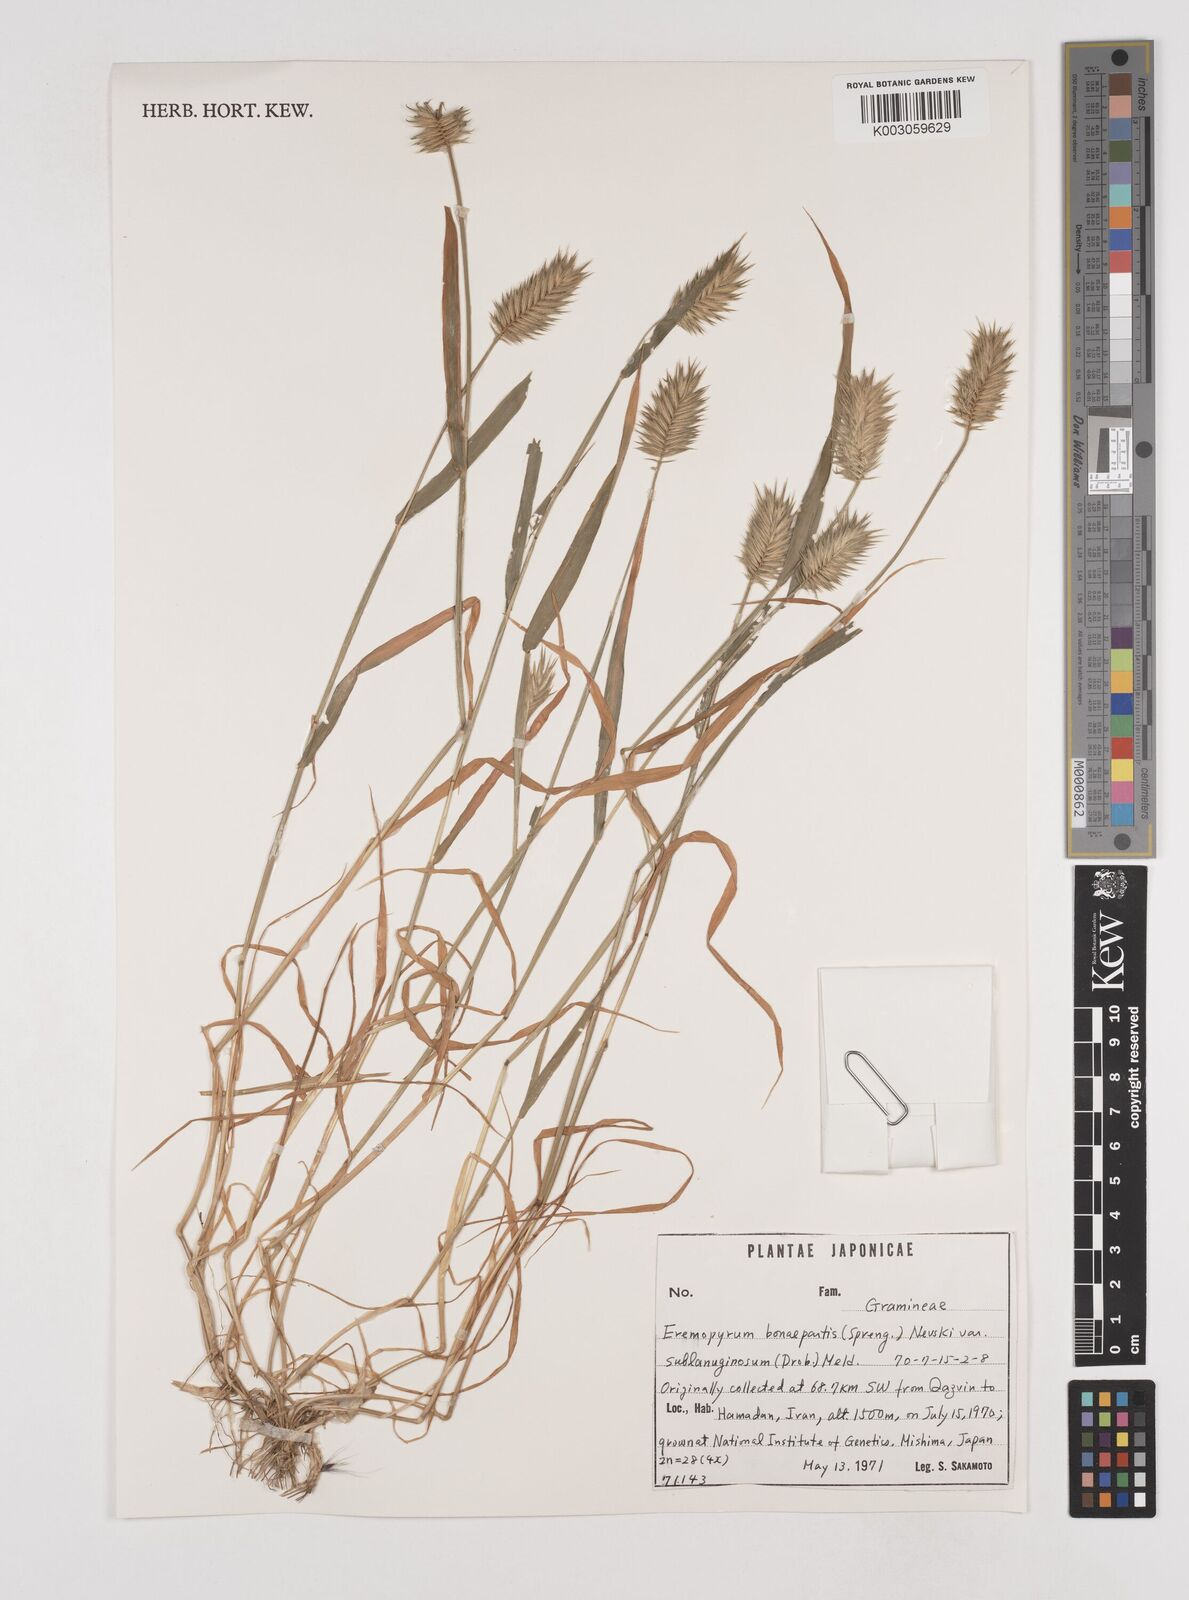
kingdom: Plantae
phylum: Tracheophyta
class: Liliopsida
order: Poales
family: Poaceae
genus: Eremopyrum
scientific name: Eremopyrum bonaepartis
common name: Tapertip false wheatgrass
